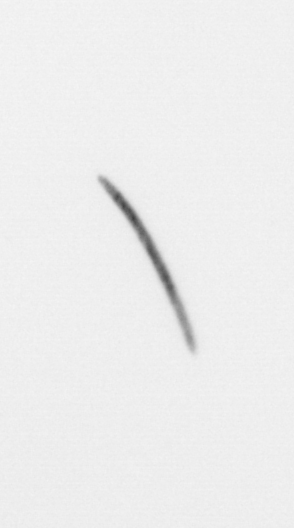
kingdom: Chromista
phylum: Ochrophyta
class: Bacillariophyceae
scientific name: Bacillariophyceae
